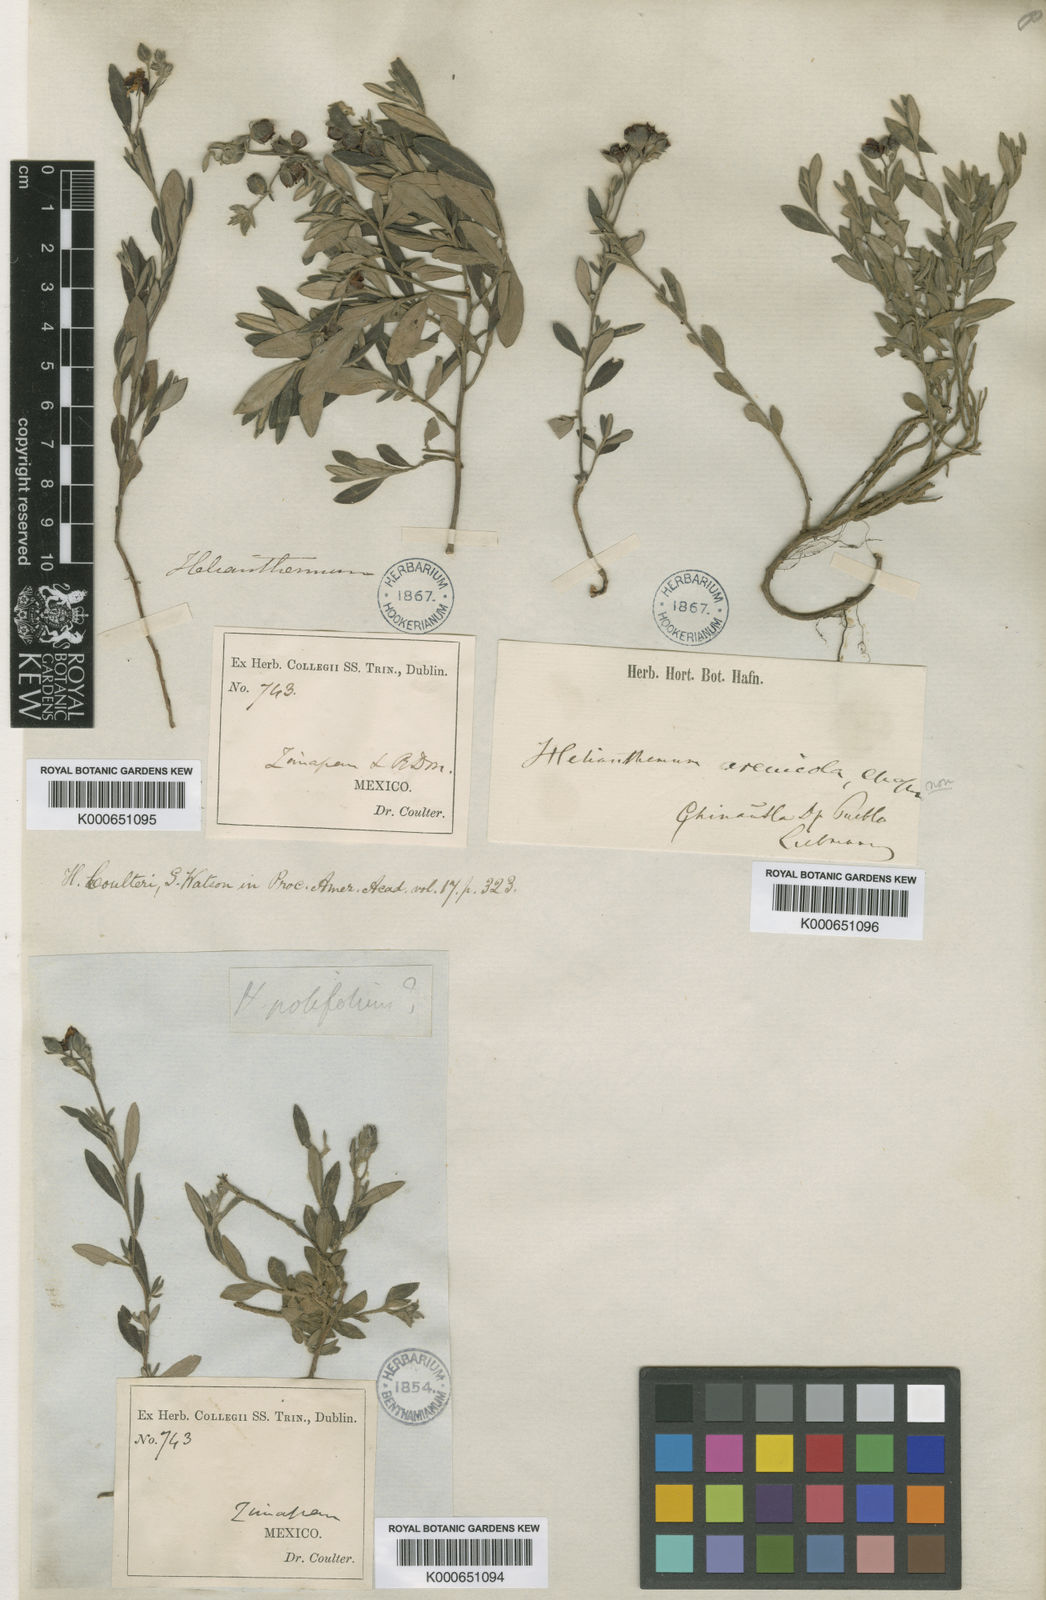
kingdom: Plantae
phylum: Tracheophyta
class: Magnoliopsida
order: Malvales
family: Cistaceae
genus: Crocanthemum
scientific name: Crocanthemum berlandieri
